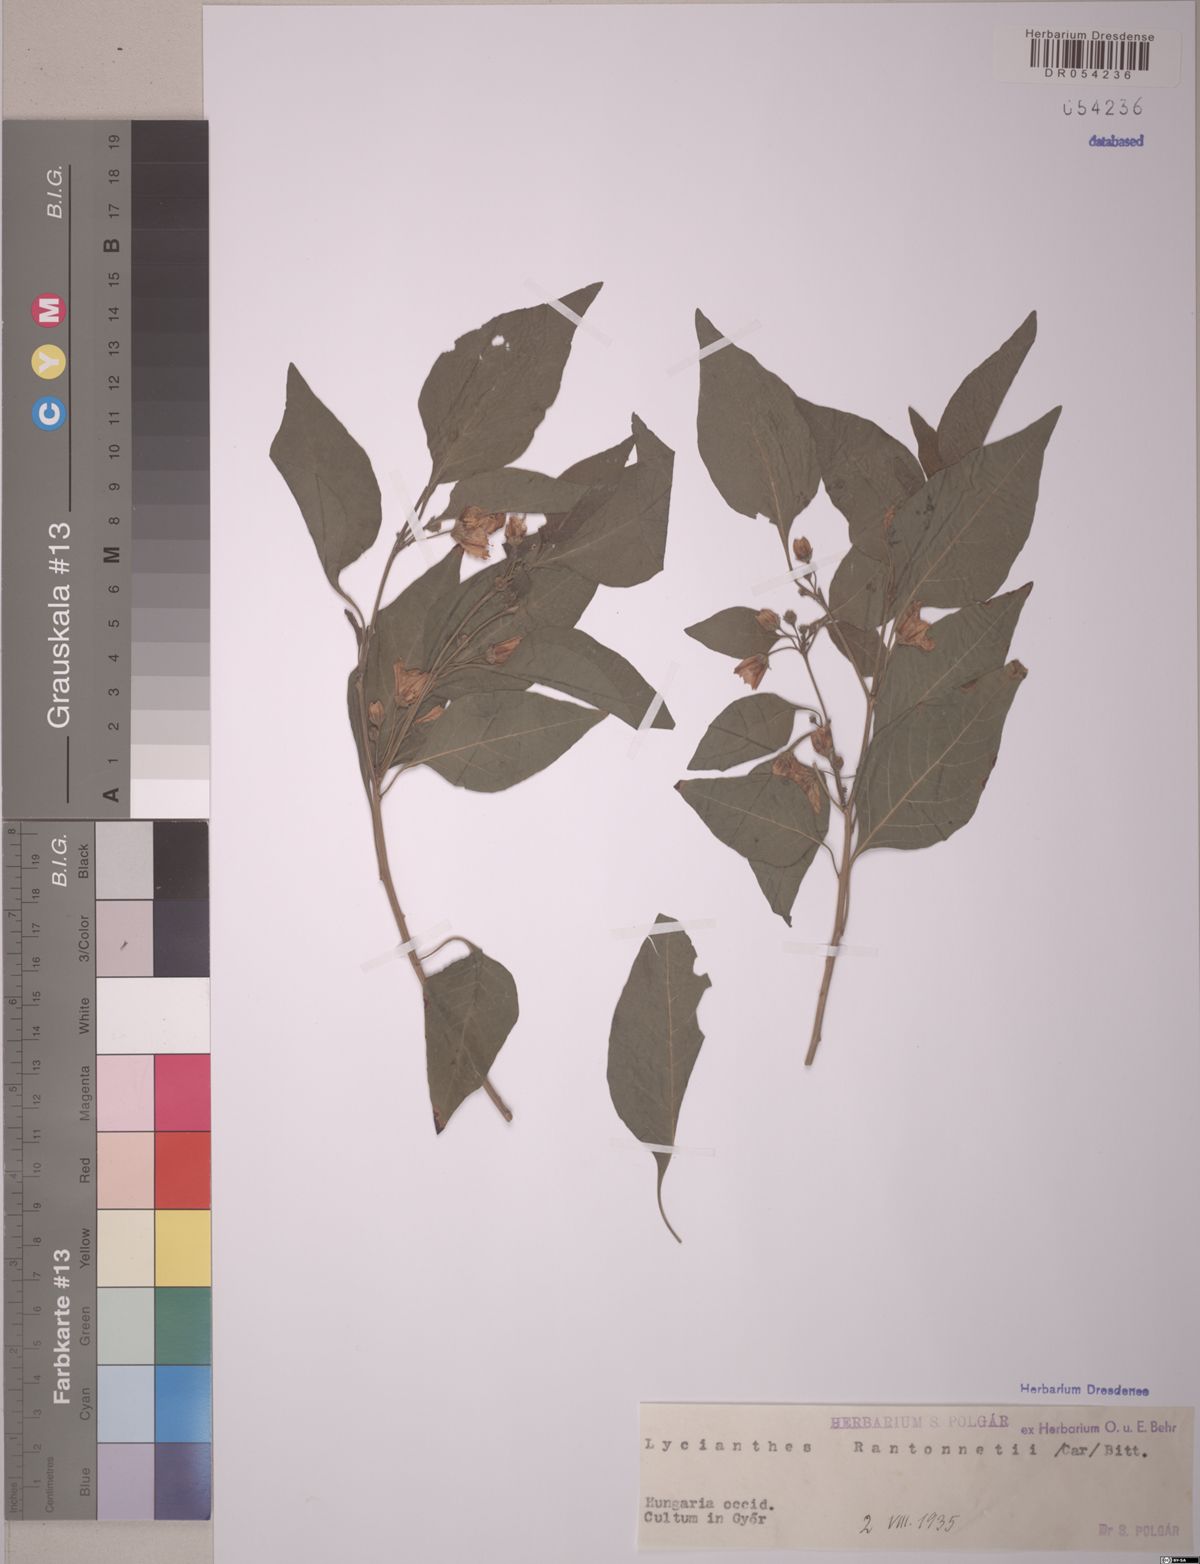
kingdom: Plantae
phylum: Tracheophyta
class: Magnoliopsida
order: Solanales
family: Solanaceae
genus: Lycianthes
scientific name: Lycianthes rantonnetii
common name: Blue potatobush
